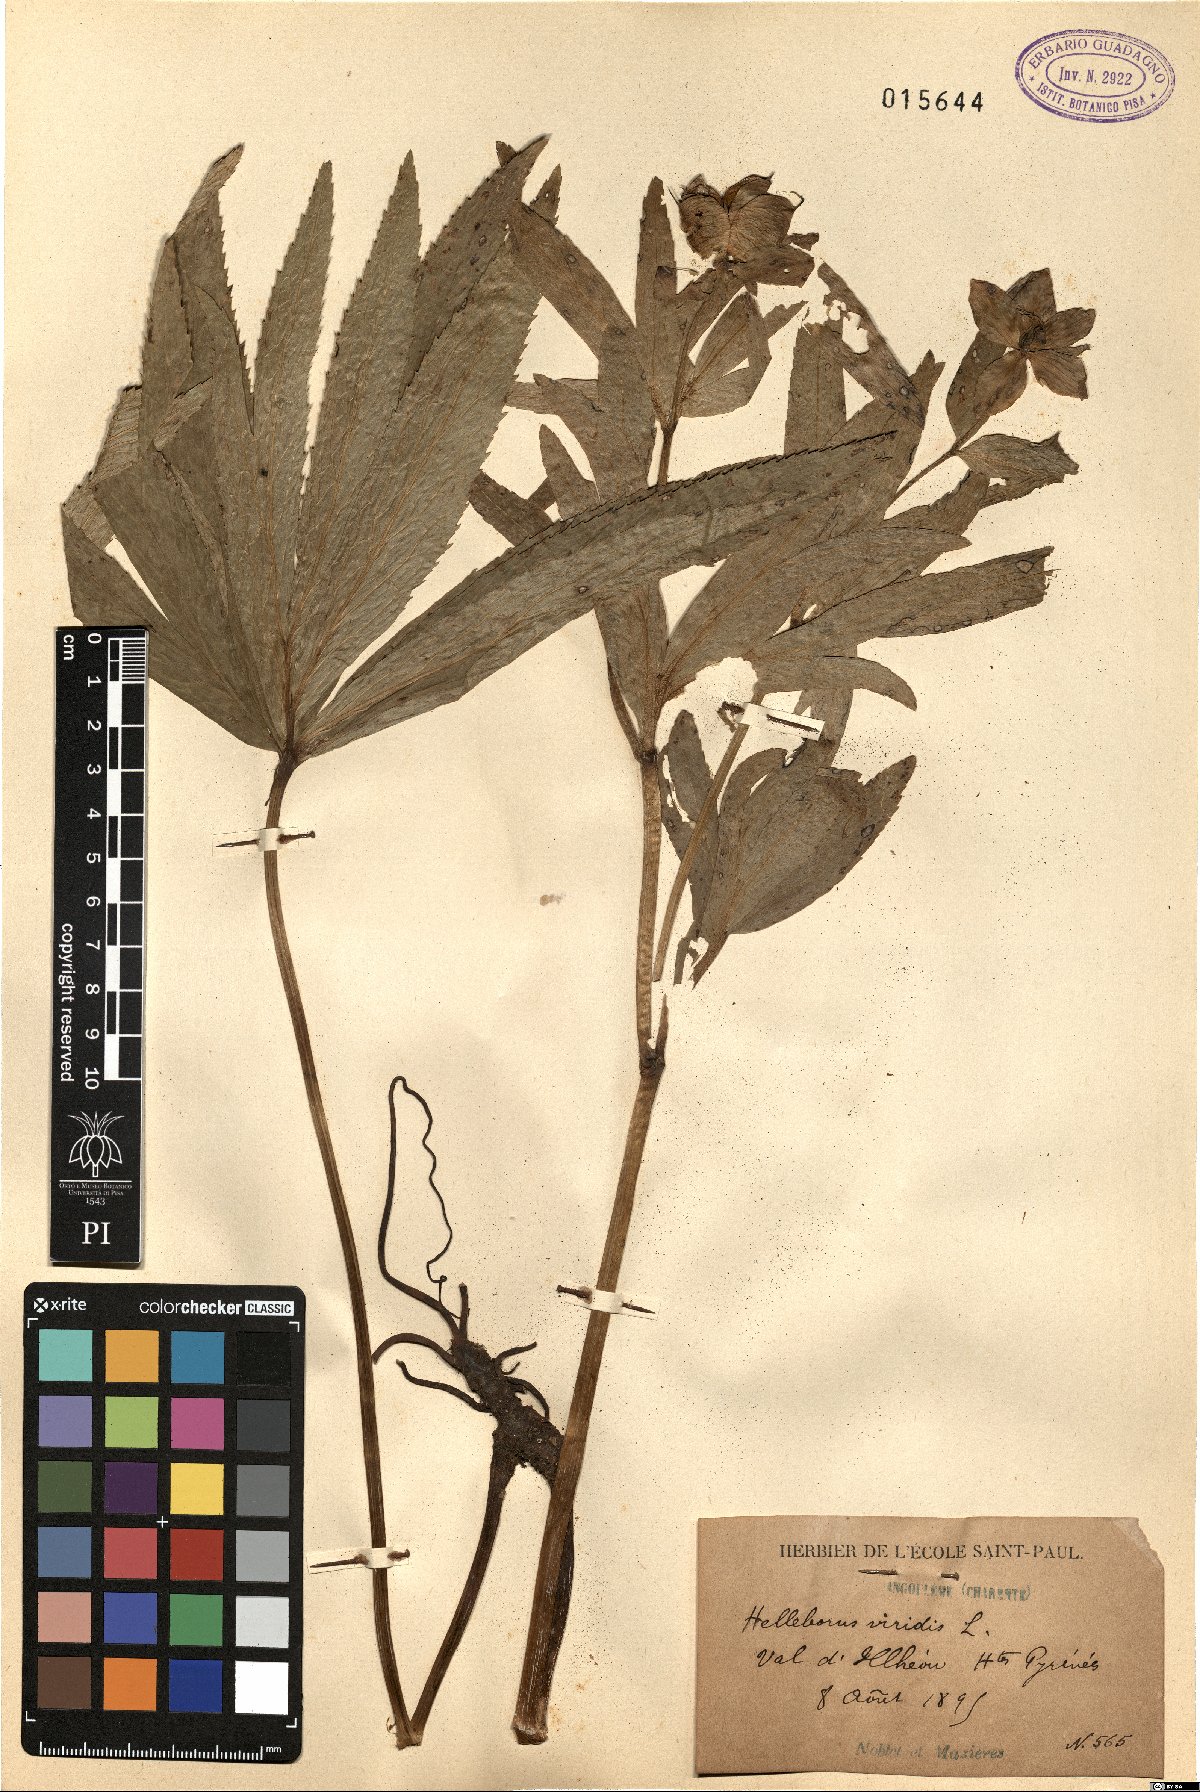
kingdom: Plantae
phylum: Tracheophyta
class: Magnoliopsida
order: Ranunculales
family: Ranunculaceae
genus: Helleborus
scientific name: Helleborus viridis
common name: Green hellebore
